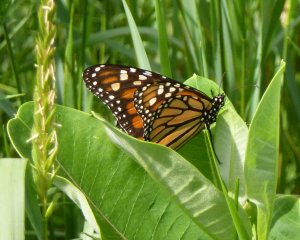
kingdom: Animalia
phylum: Arthropoda
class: Insecta
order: Lepidoptera
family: Nymphalidae
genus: Danaus
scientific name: Danaus plexippus
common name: Monarch
